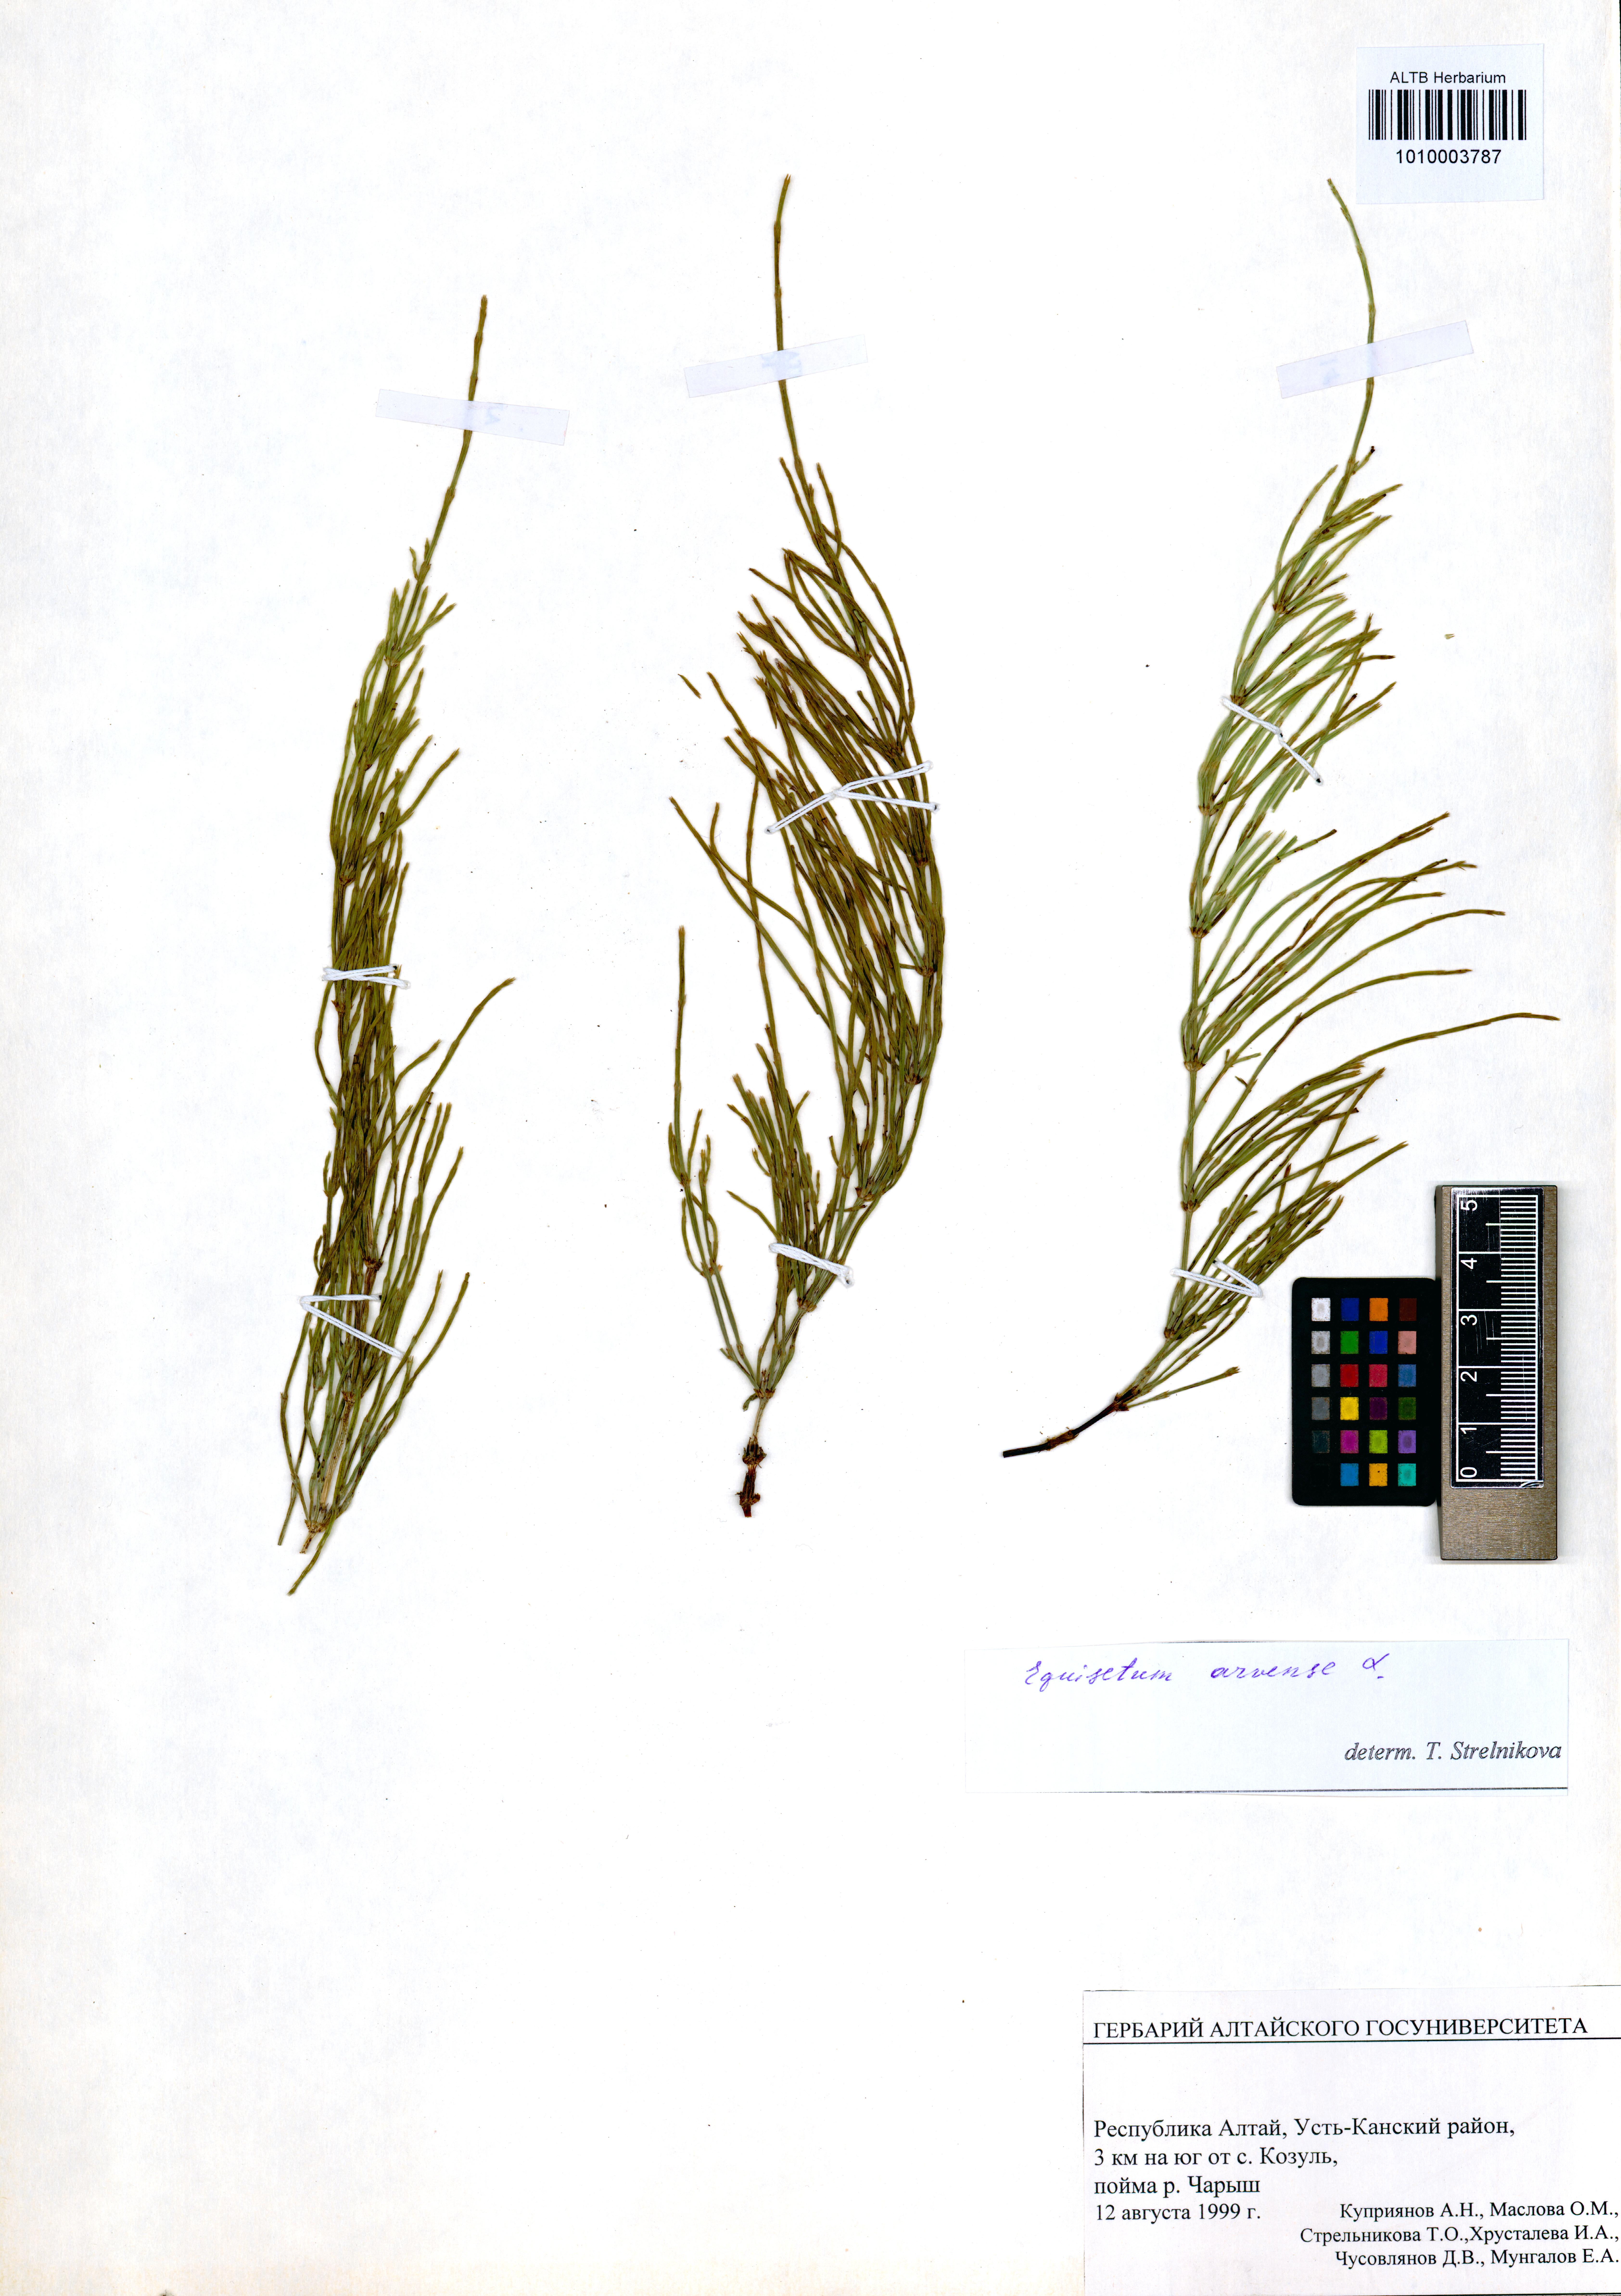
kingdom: Plantae
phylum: Tracheophyta
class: Polypodiopsida
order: Equisetales
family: Equisetaceae
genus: Equisetum
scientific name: Equisetum arvense
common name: Field horsetail
